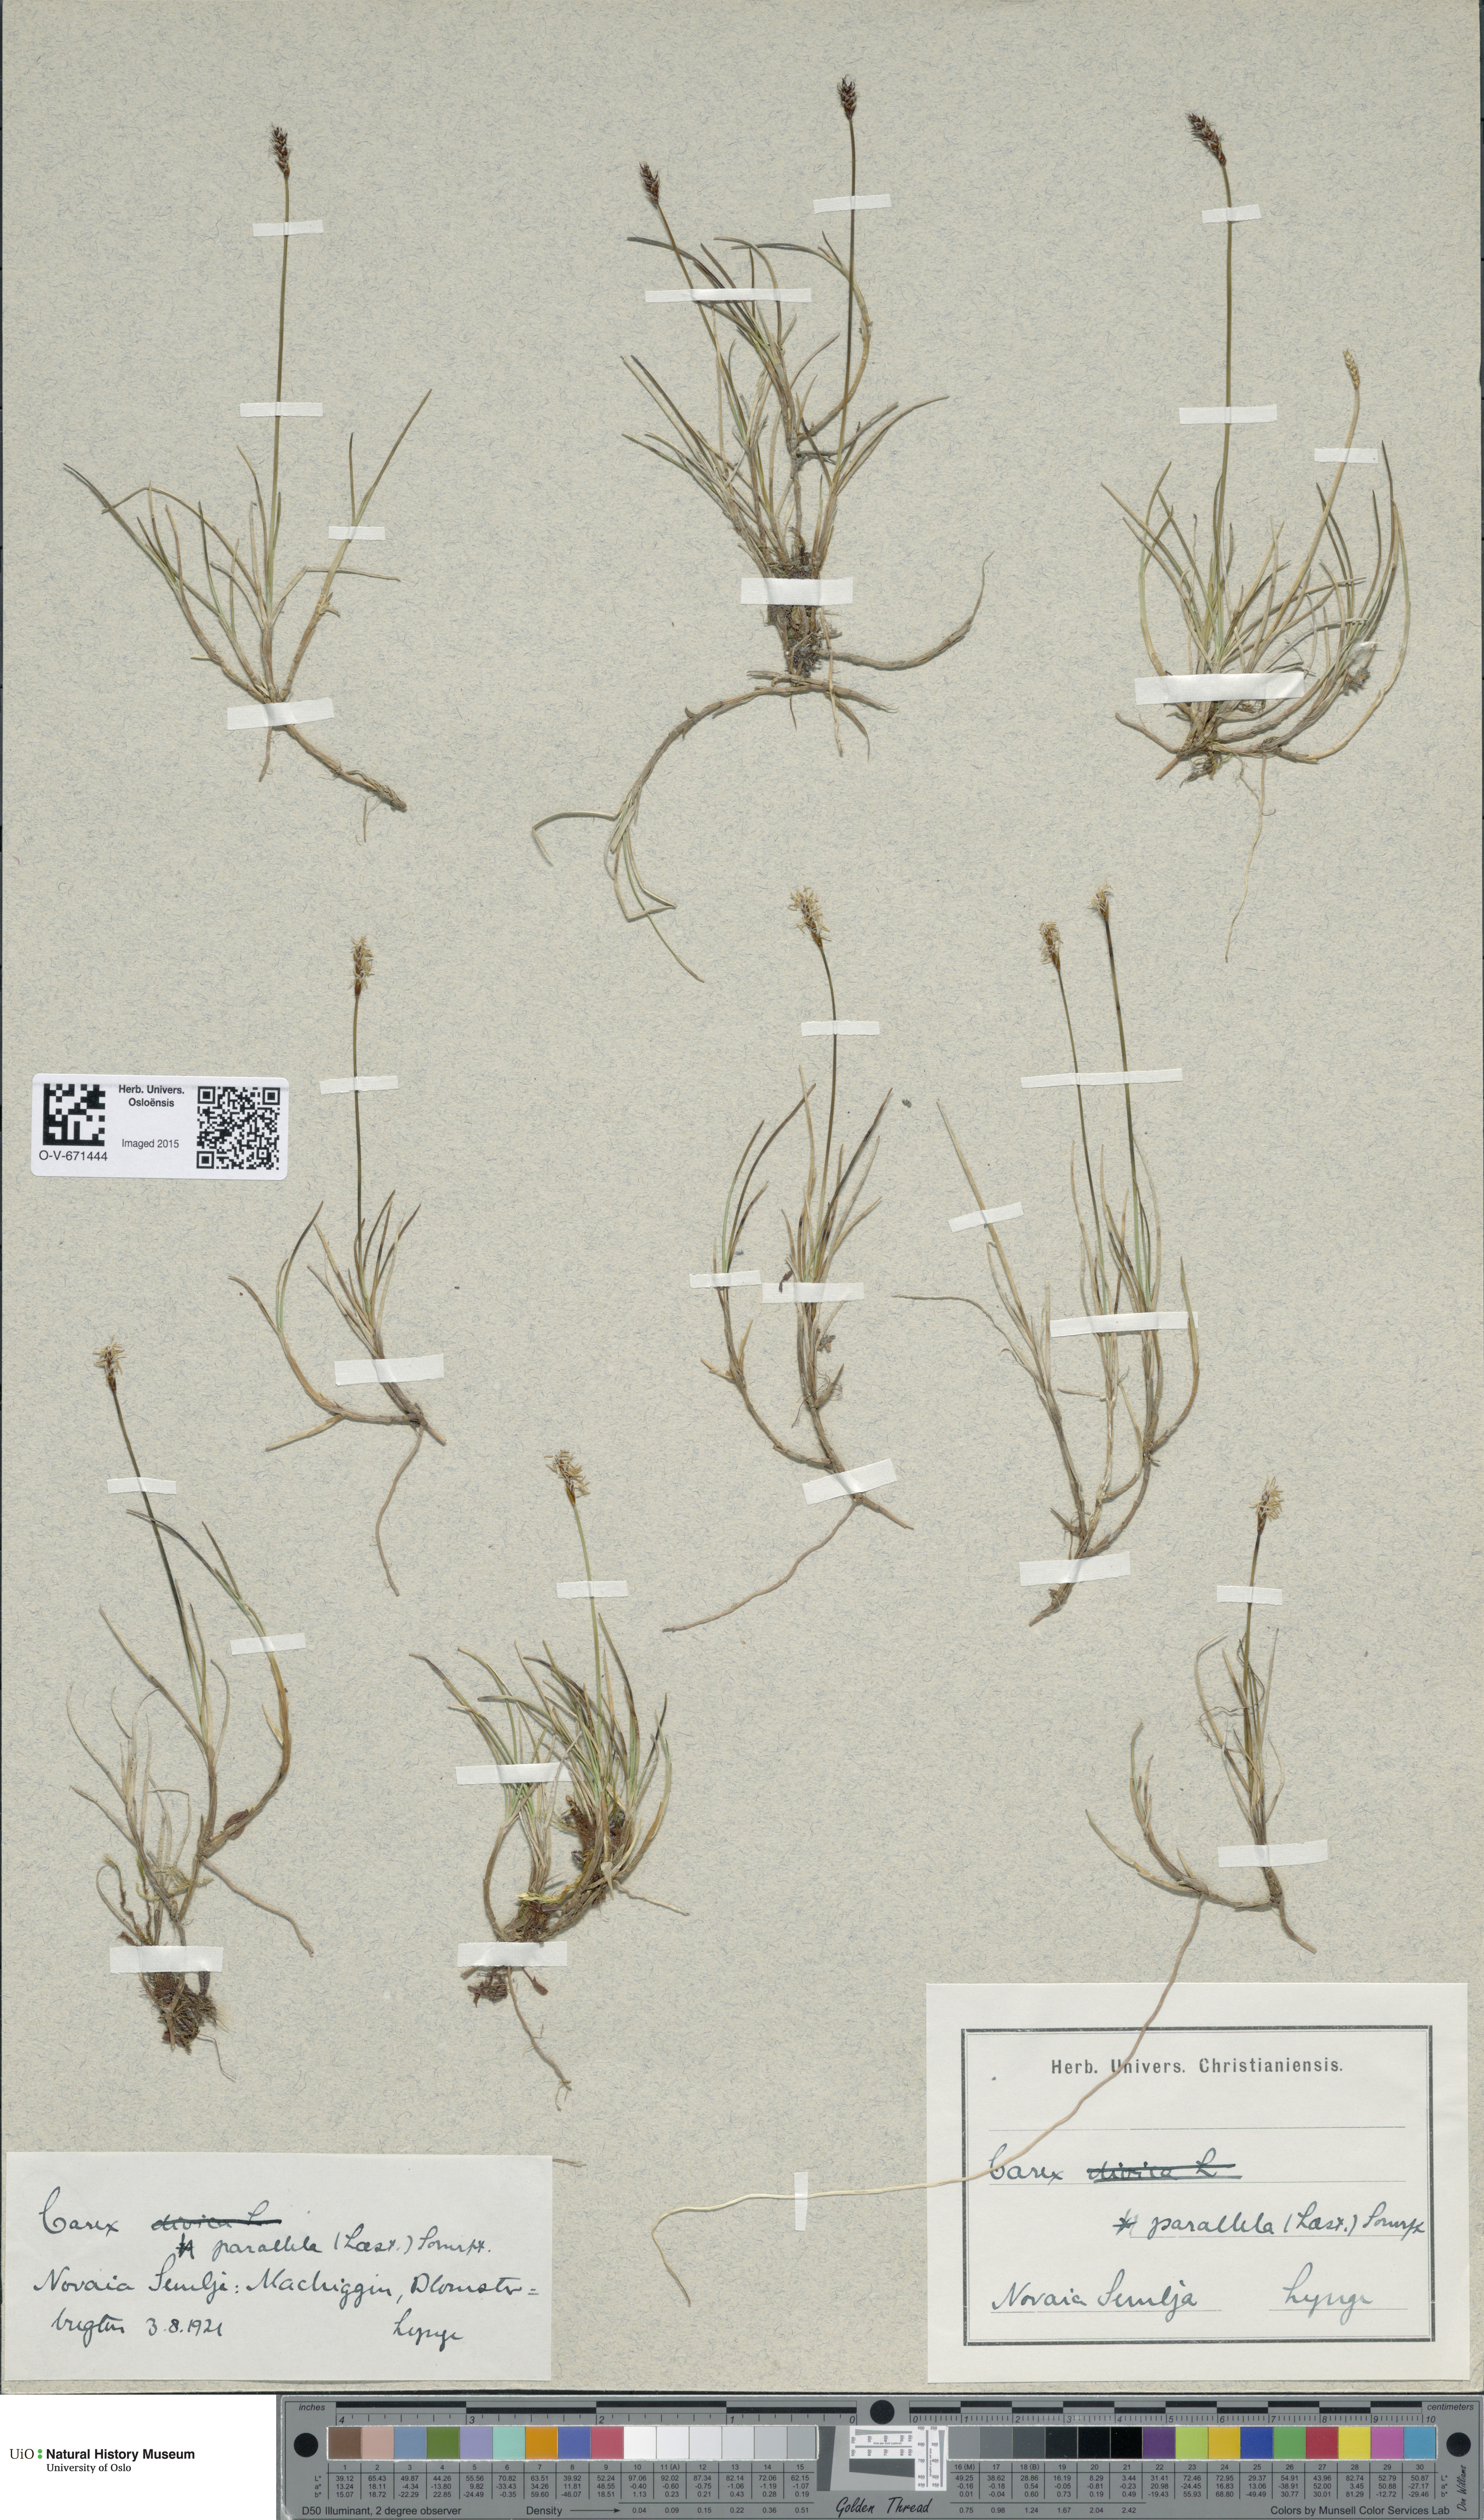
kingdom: Plantae
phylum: Tracheophyta
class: Liliopsida
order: Poales
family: Cyperaceae
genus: Carex
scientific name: Carex parallela
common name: Parallel sedge
